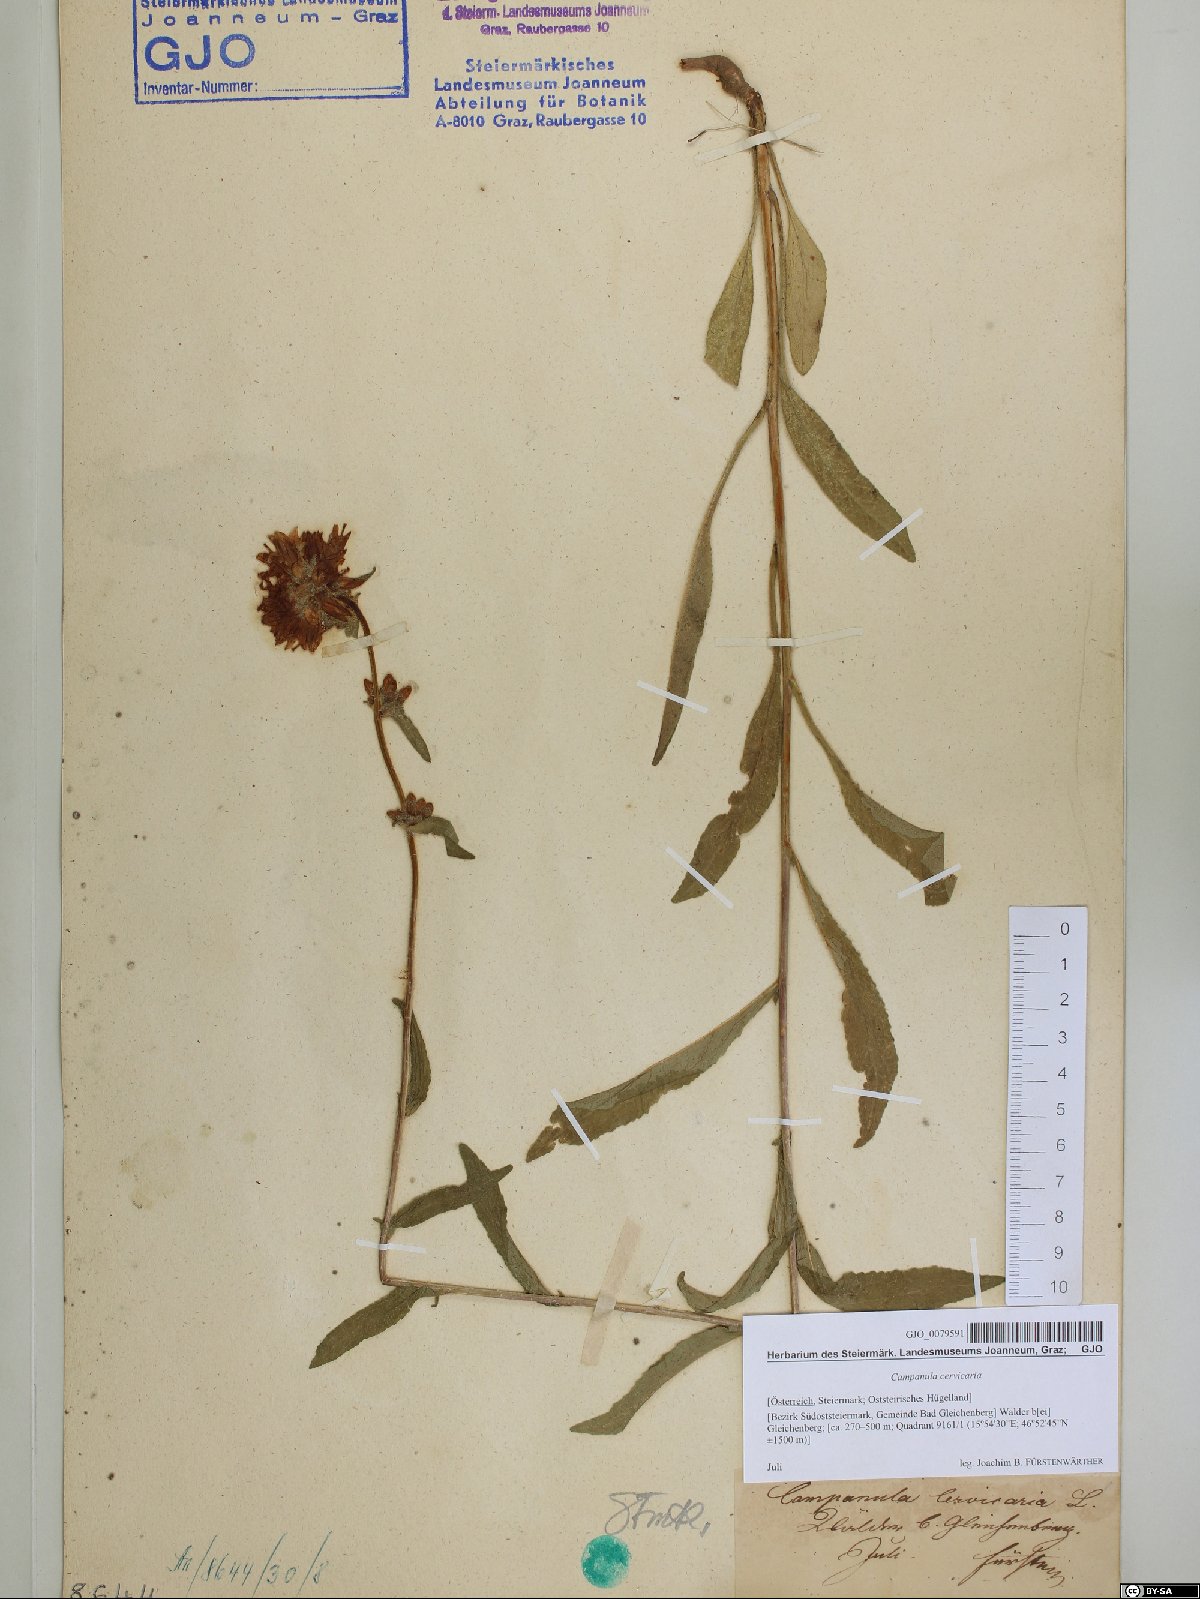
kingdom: Plantae
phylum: Tracheophyta
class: Magnoliopsida
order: Asterales
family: Campanulaceae
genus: Campanula
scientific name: Campanula cervicaria
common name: Bristly bellflower
